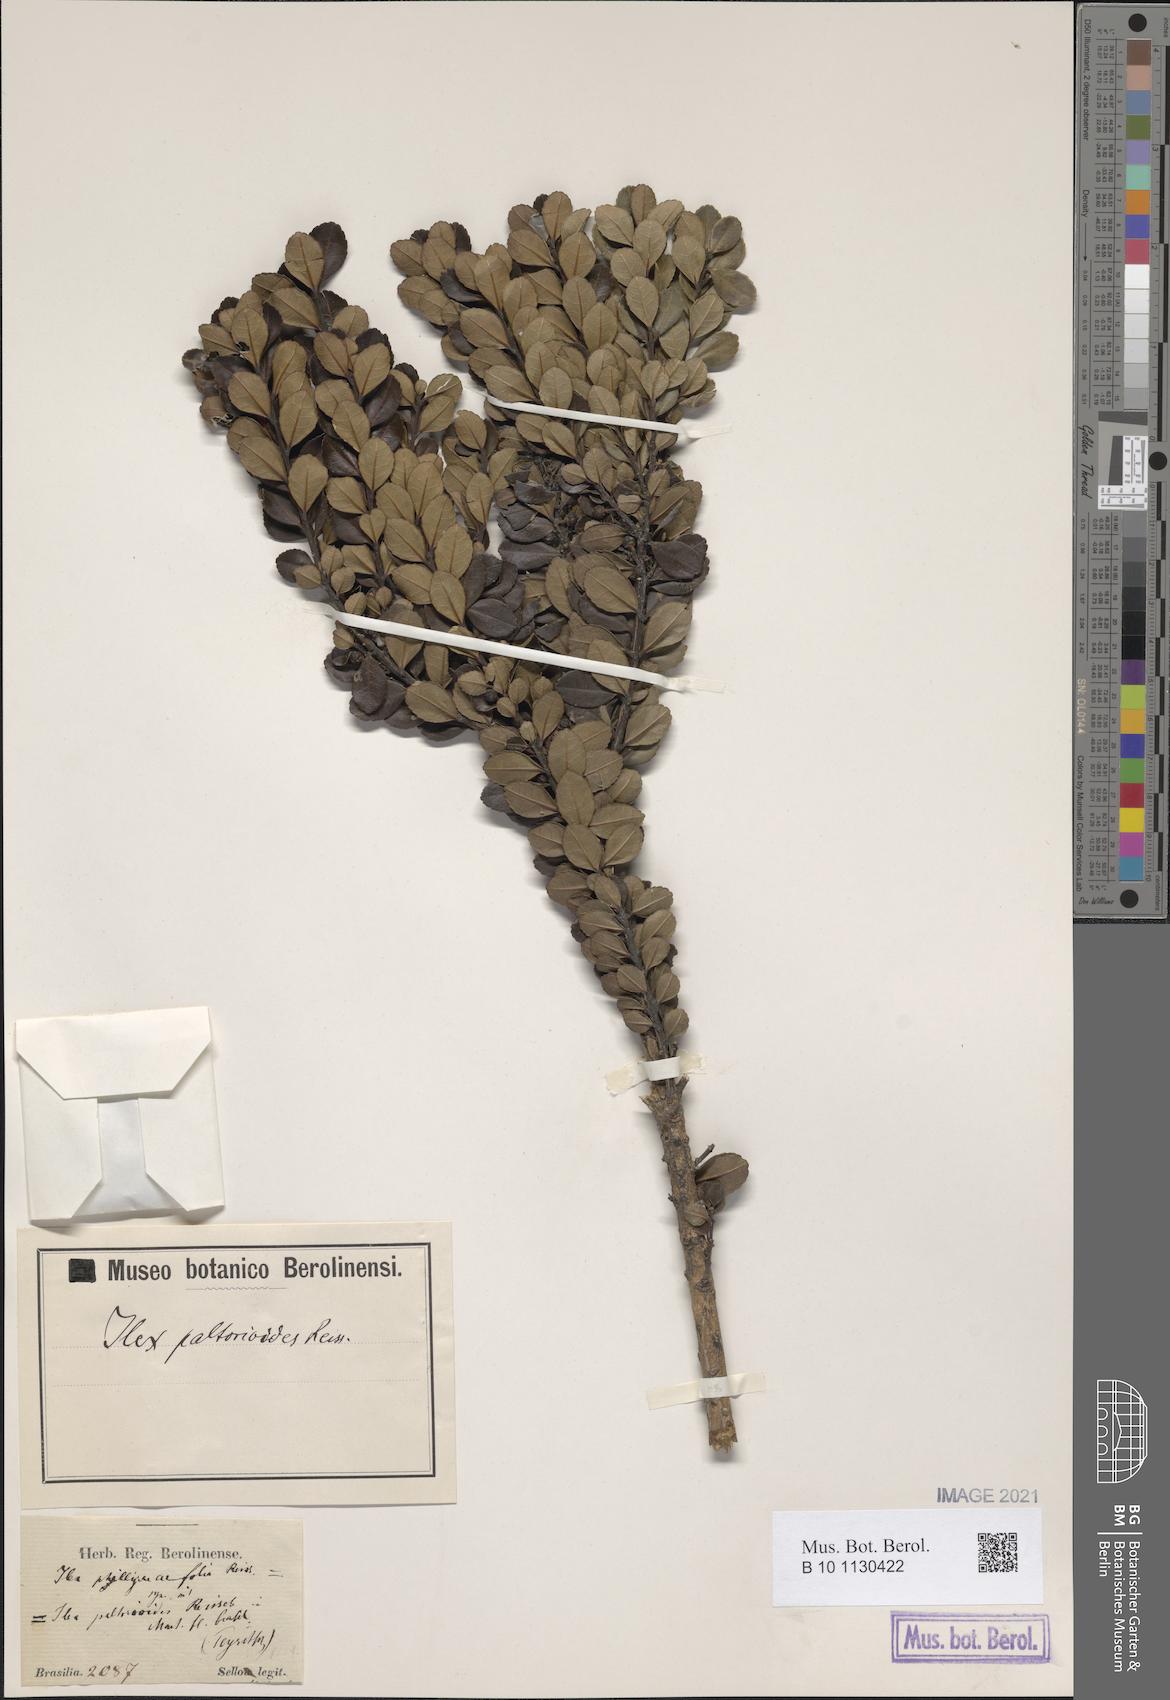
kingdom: Plantae
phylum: Tracheophyta
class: Magnoliopsida
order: Aquifoliales
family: Aquifoliaceae
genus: Ilex
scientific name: Ilex paltorioides
